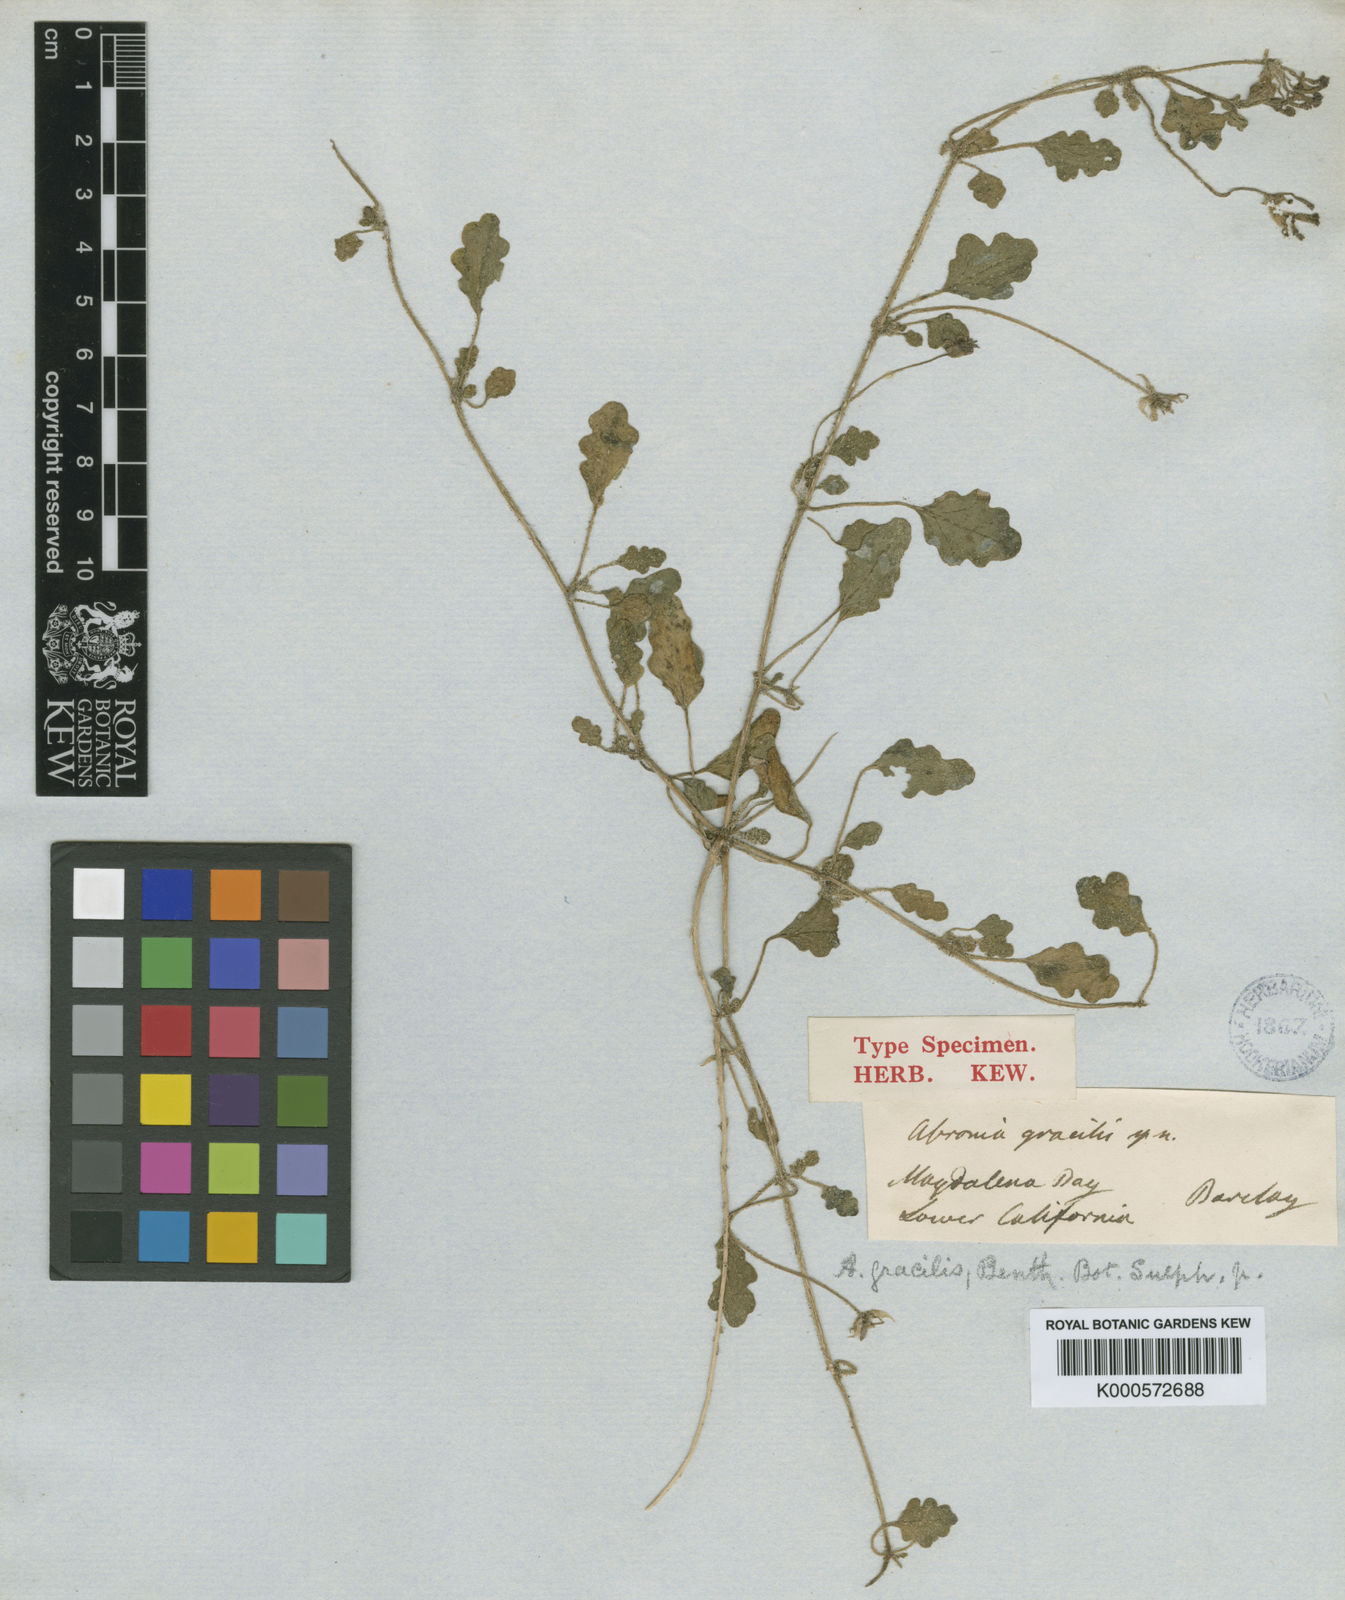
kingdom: Plantae
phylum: Tracheophyta
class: Magnoliopsida
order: Caryophyllales
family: Nyctaginaceae
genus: Abronia
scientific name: Abronia gracilis
